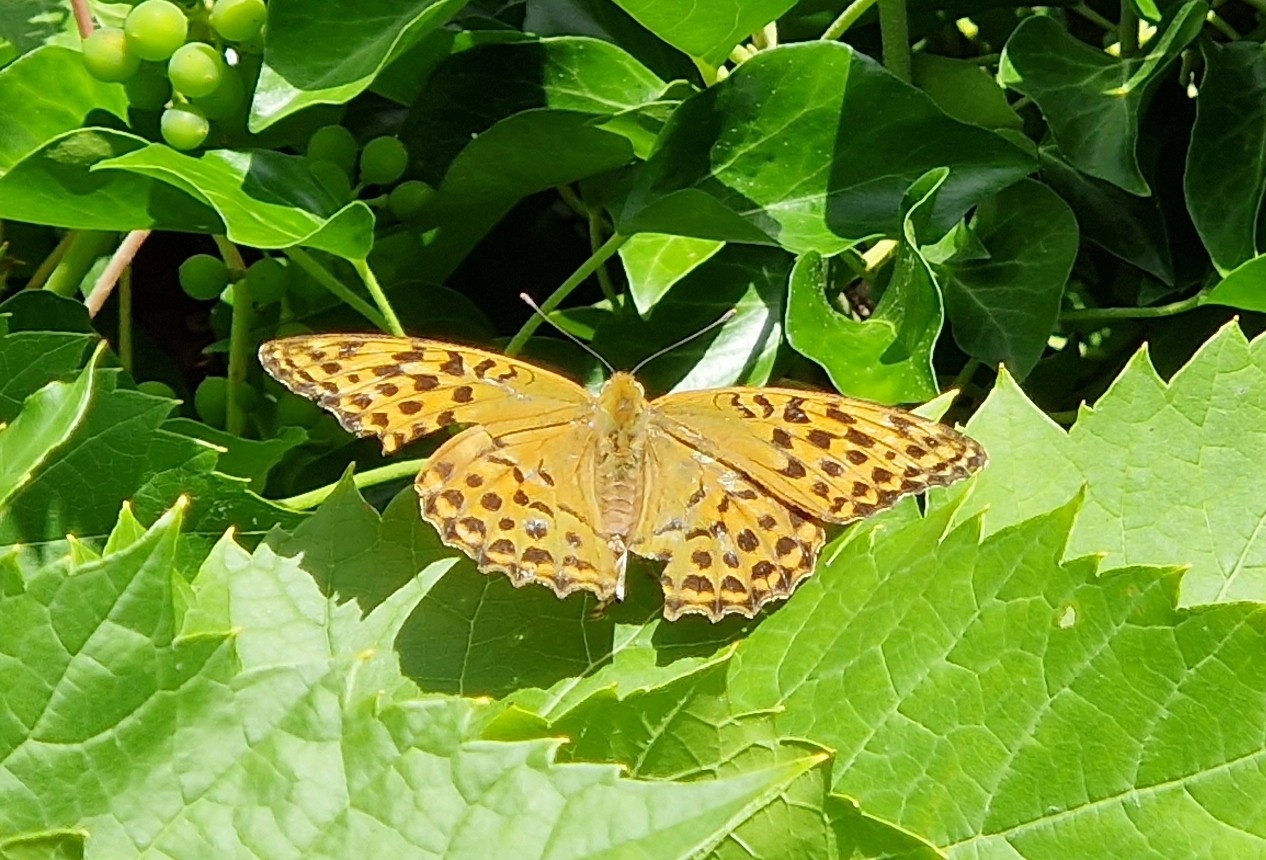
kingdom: Animalia
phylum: Arthropoda
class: Insecta
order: Lepidoptera
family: Nymphalidae
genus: Argynnis
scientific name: Argynnis paphia
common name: Kejserkåbe
